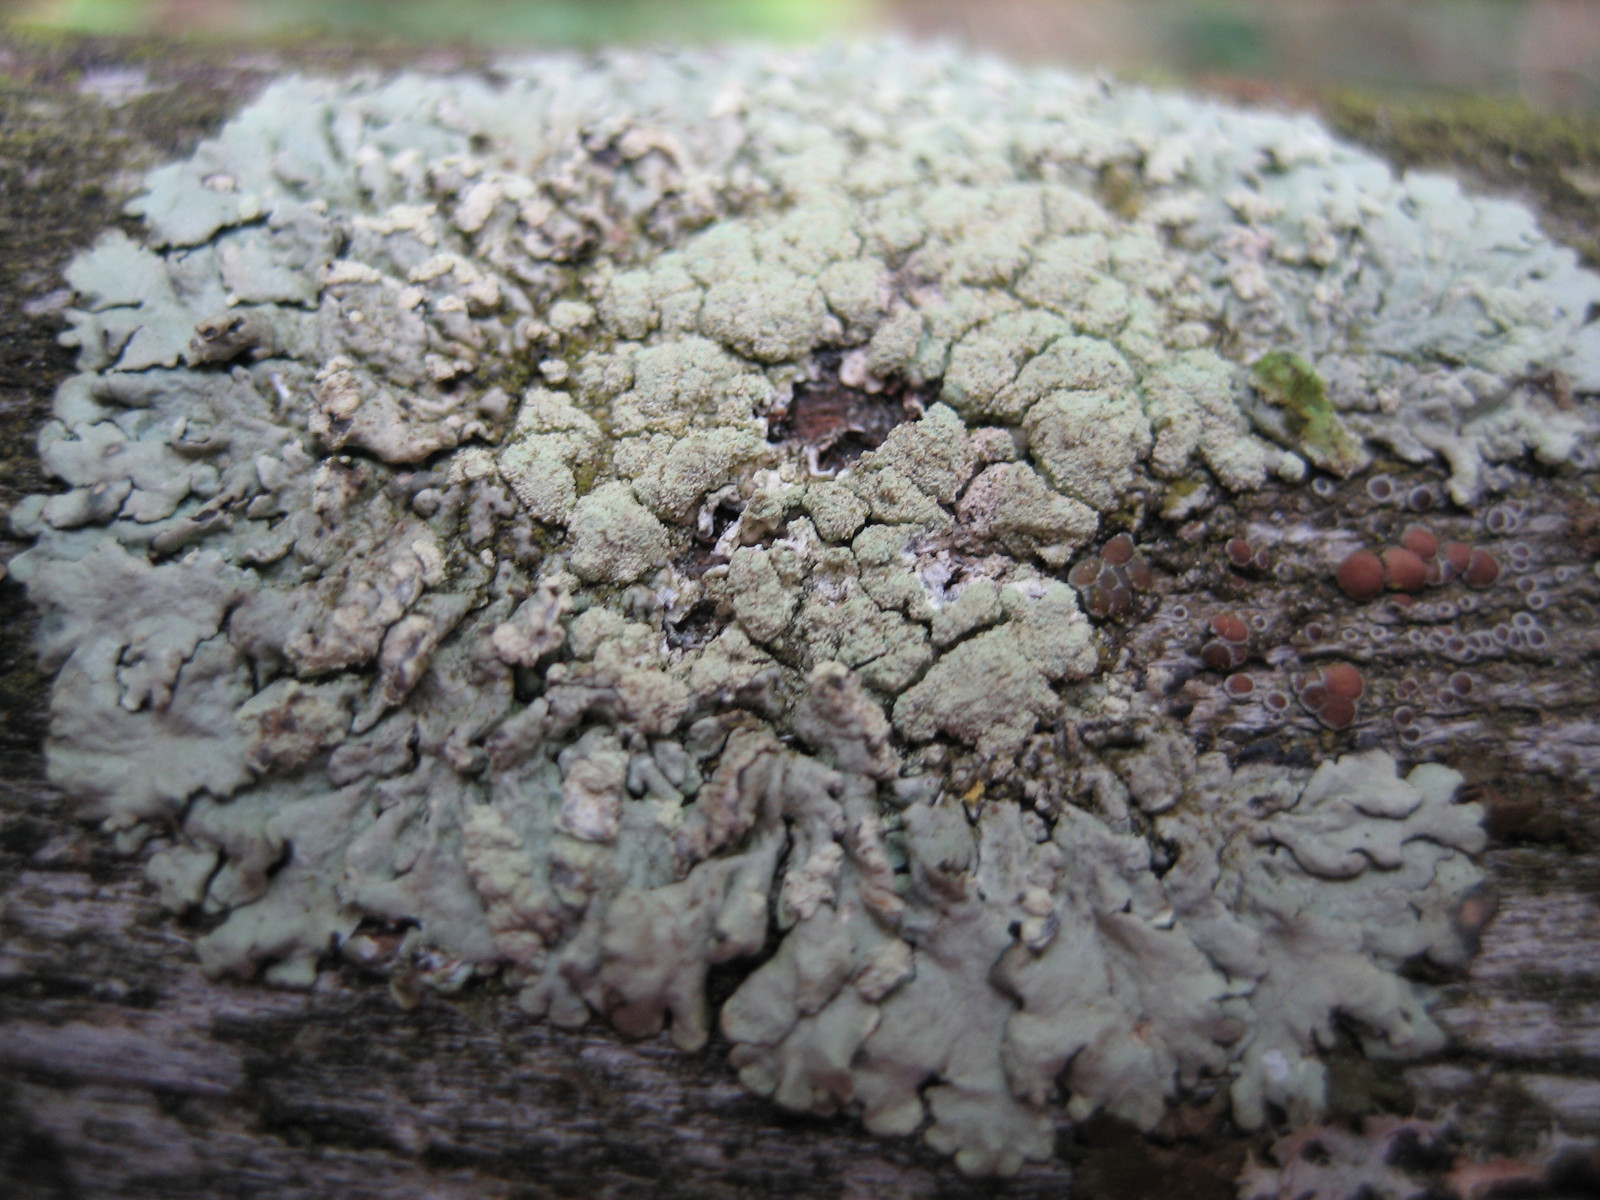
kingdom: Fungi
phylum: Ascomycota
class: Lecanoromycetes
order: Lecanorales
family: Parmeliaceae
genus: Parmeliopsis
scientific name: Parmeliopsis ambigua
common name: gul stolpelav
